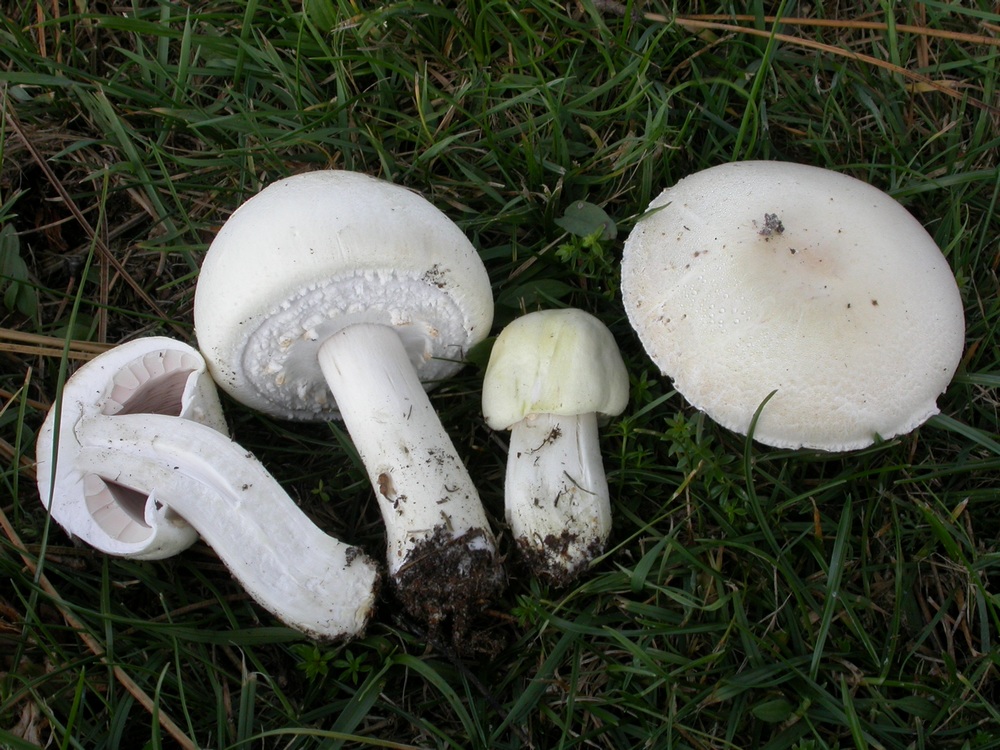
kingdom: Fungi
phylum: Basidiomycota
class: Agaricomycetes
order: Agaricales
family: Agaricaceae
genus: Agaricus
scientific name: Agaricus arvensis
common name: ager-champignon
